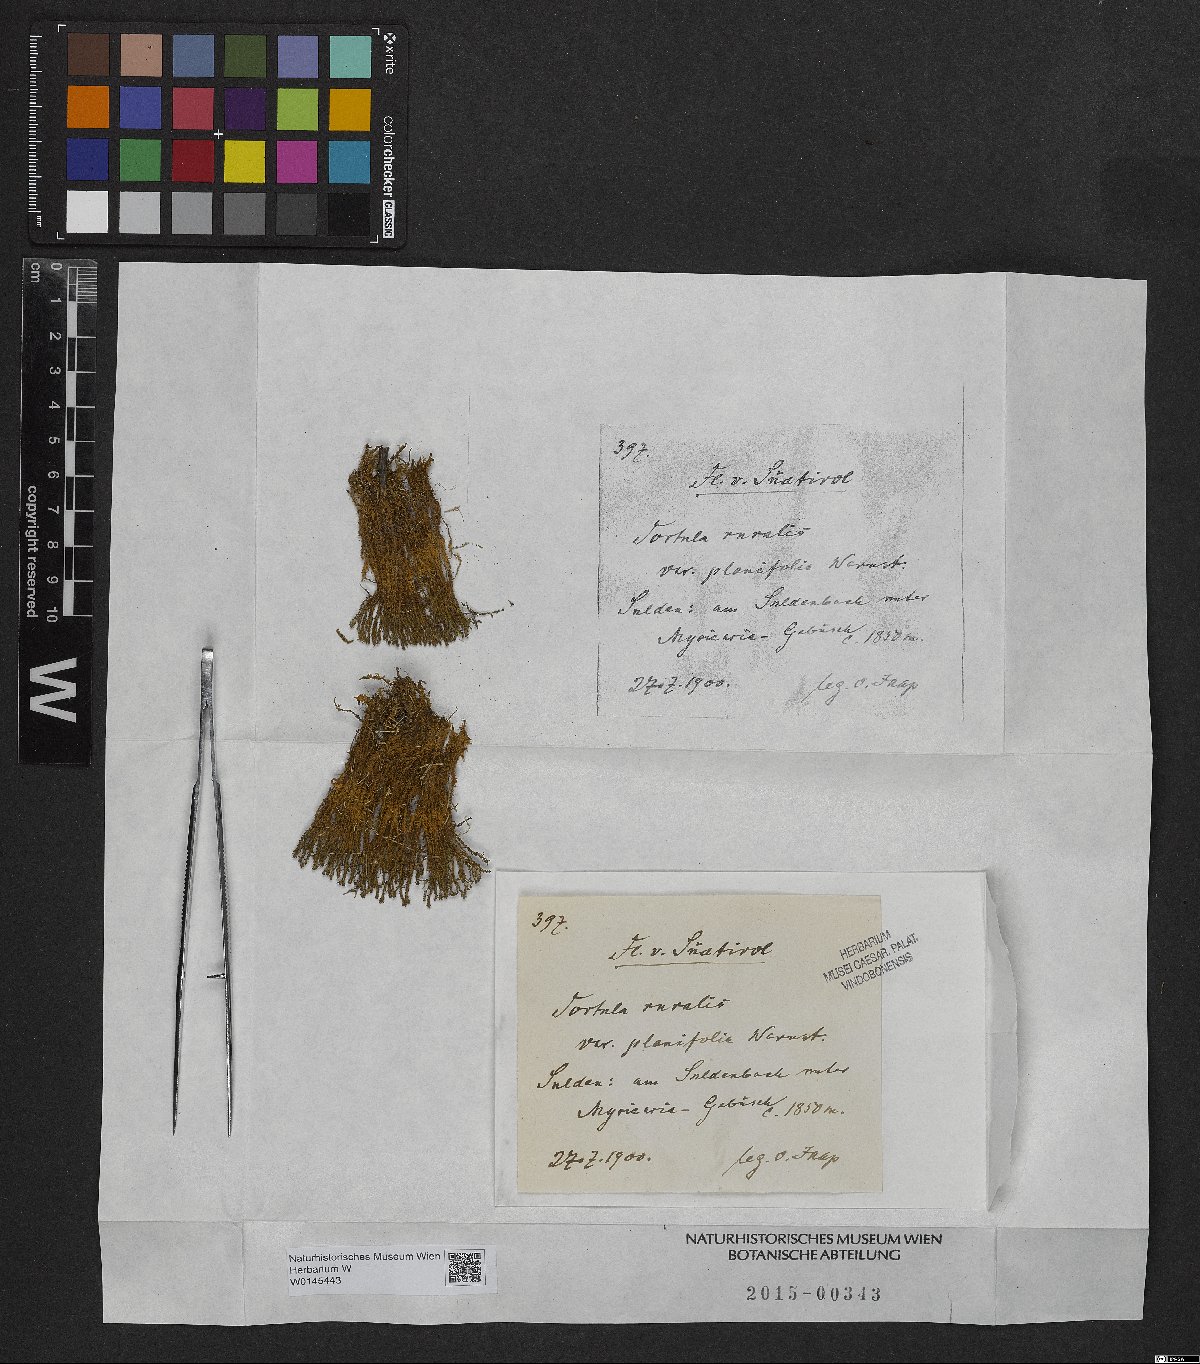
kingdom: Plantae
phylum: Bryophyta
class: Bryopsida
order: Pottiales
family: Pottiaceae
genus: Syntrichia
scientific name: Syntrichia ruralis
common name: Sidewalk screw moss
